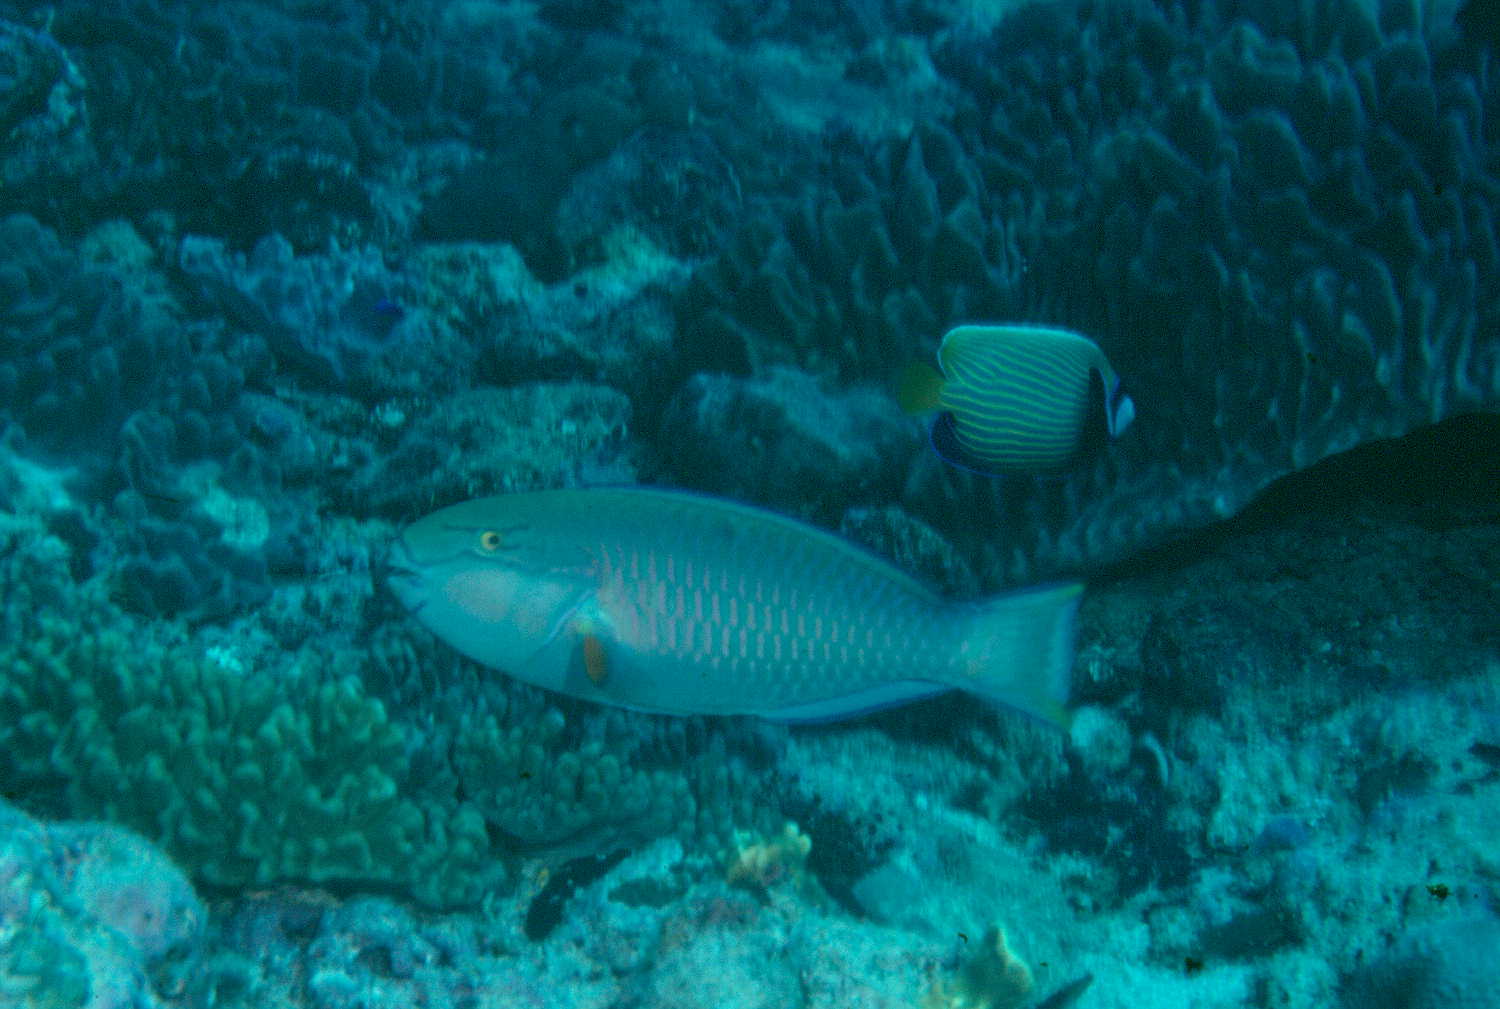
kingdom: Animalia
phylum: Chordata
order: Perciformes
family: Scaridae
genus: Chlorurus
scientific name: Chlorurus enneacanthus
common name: Captain parrotfish
